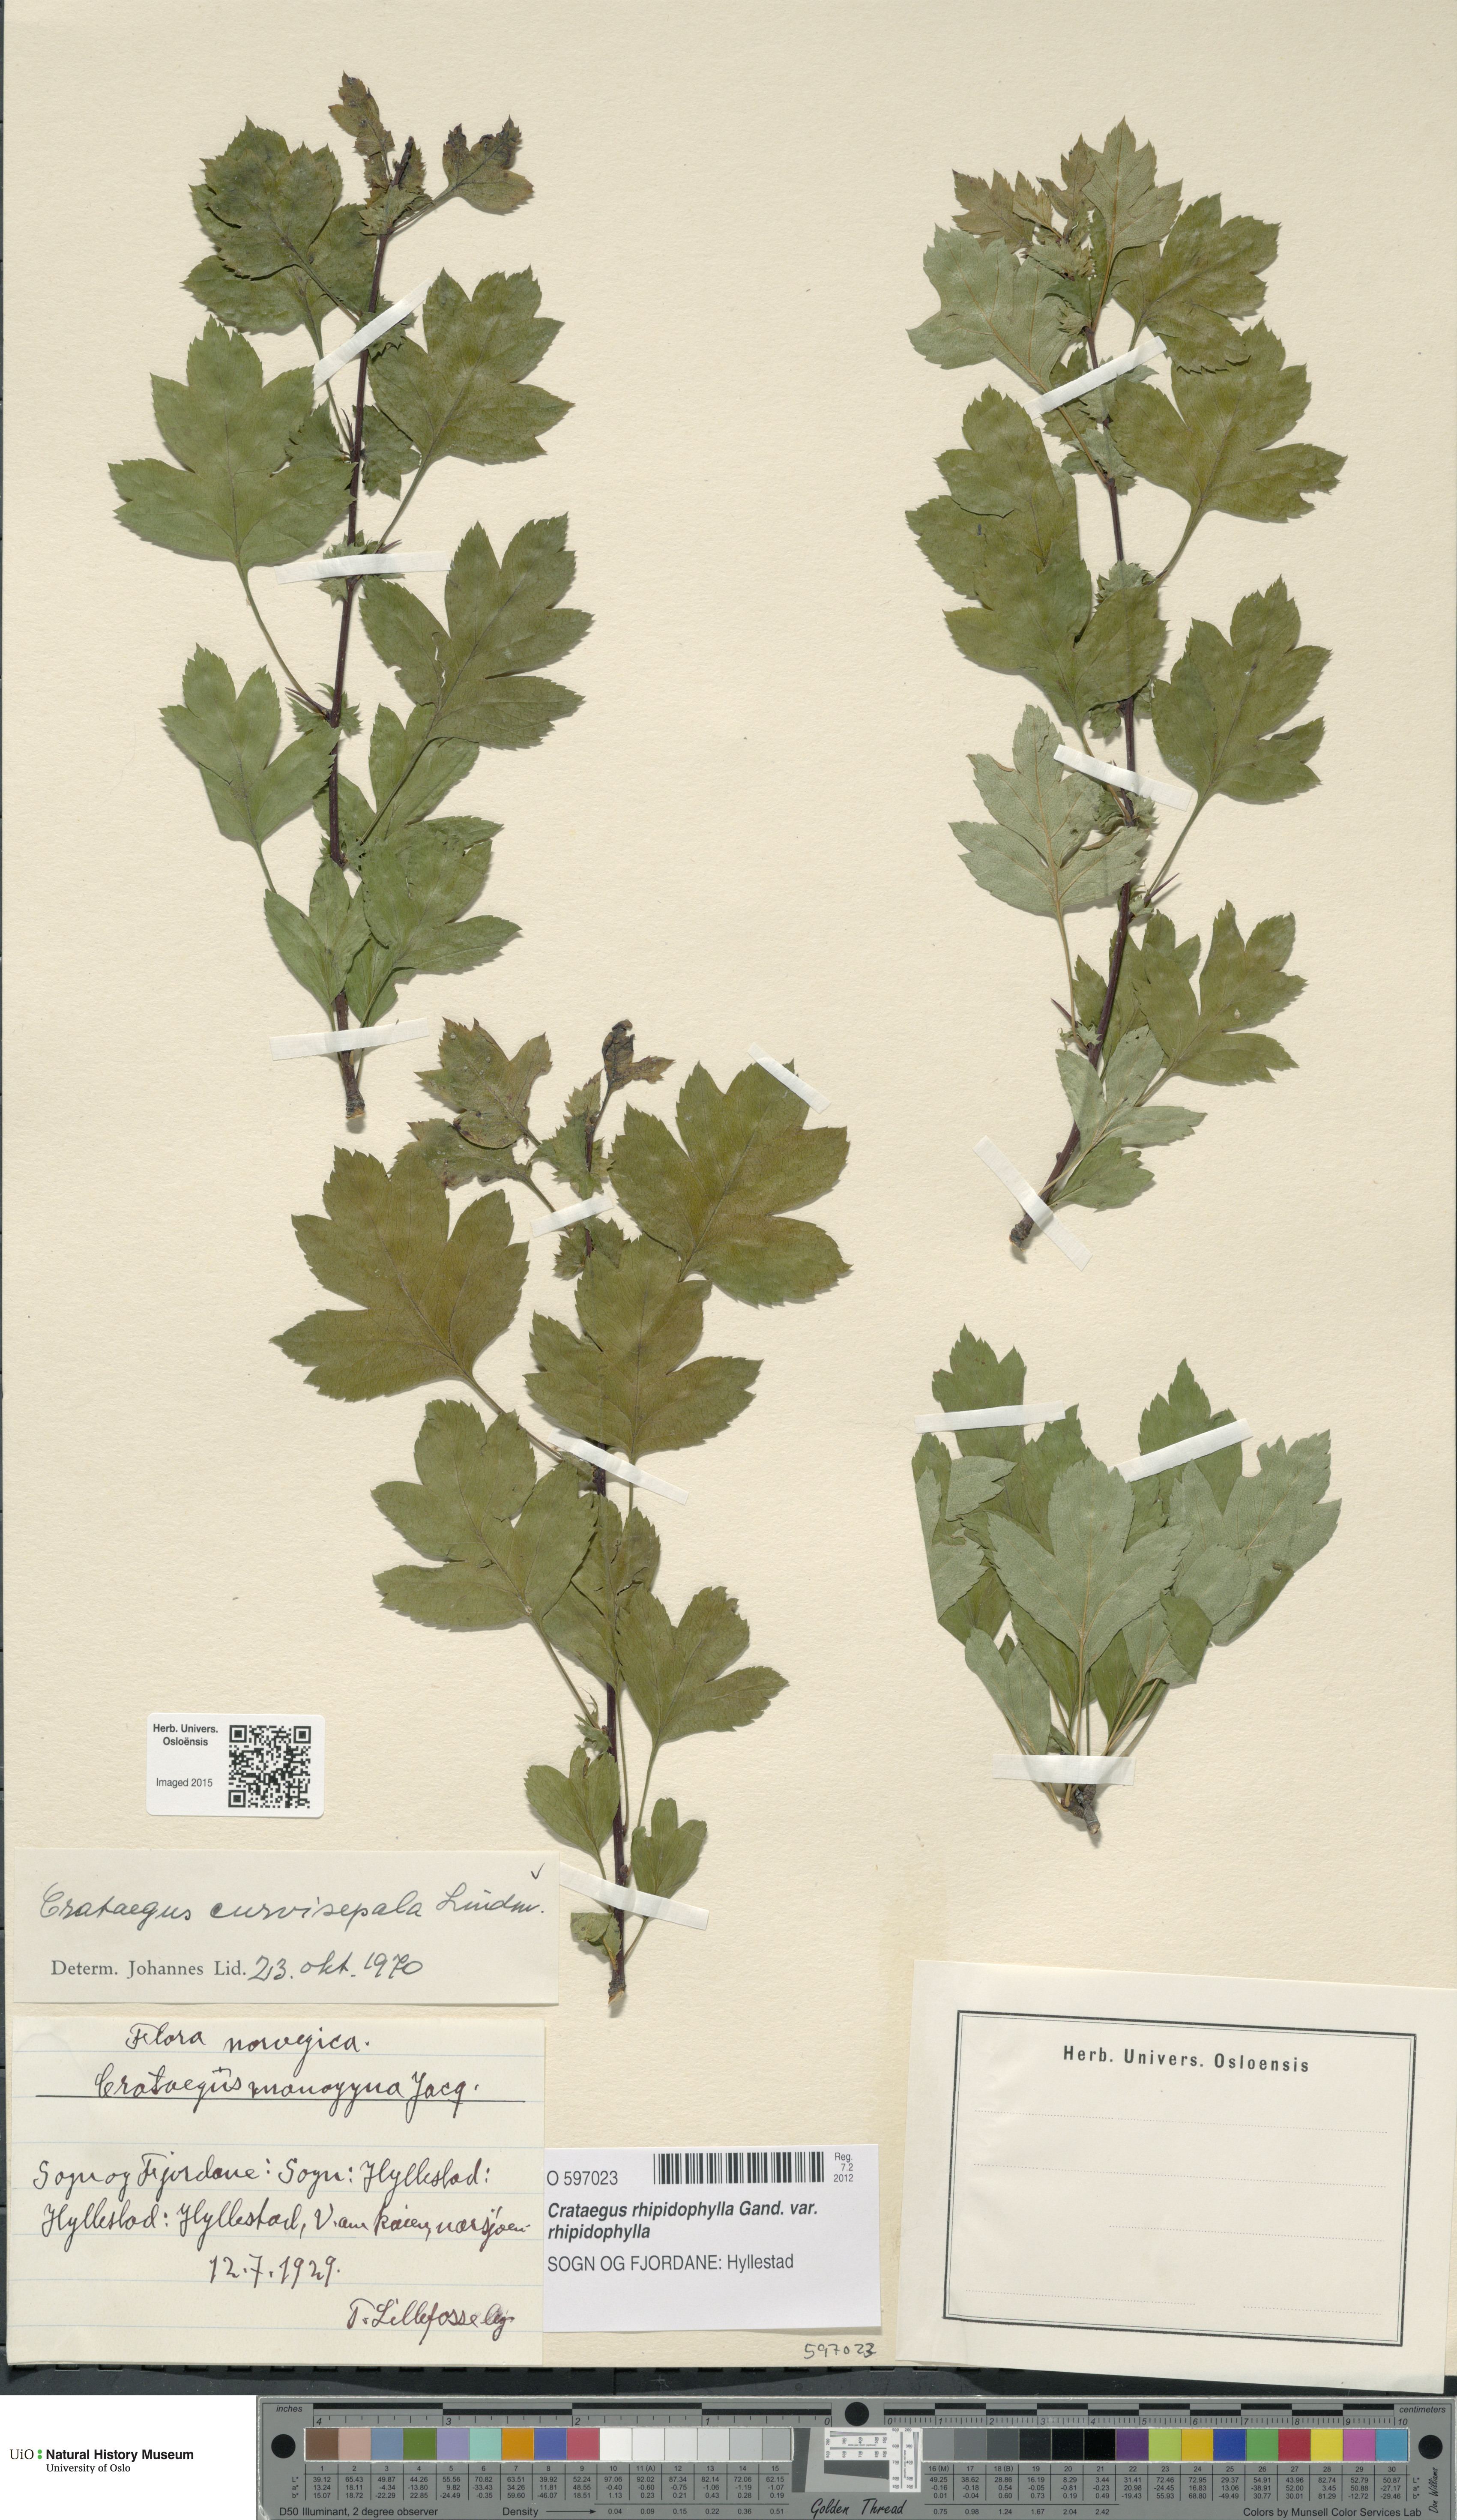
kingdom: Plantae
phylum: Tracheophyta
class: Magnoliopsida
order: Rosales
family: Rosaceae
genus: Crataegus
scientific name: Crataegus rhipidophylla
